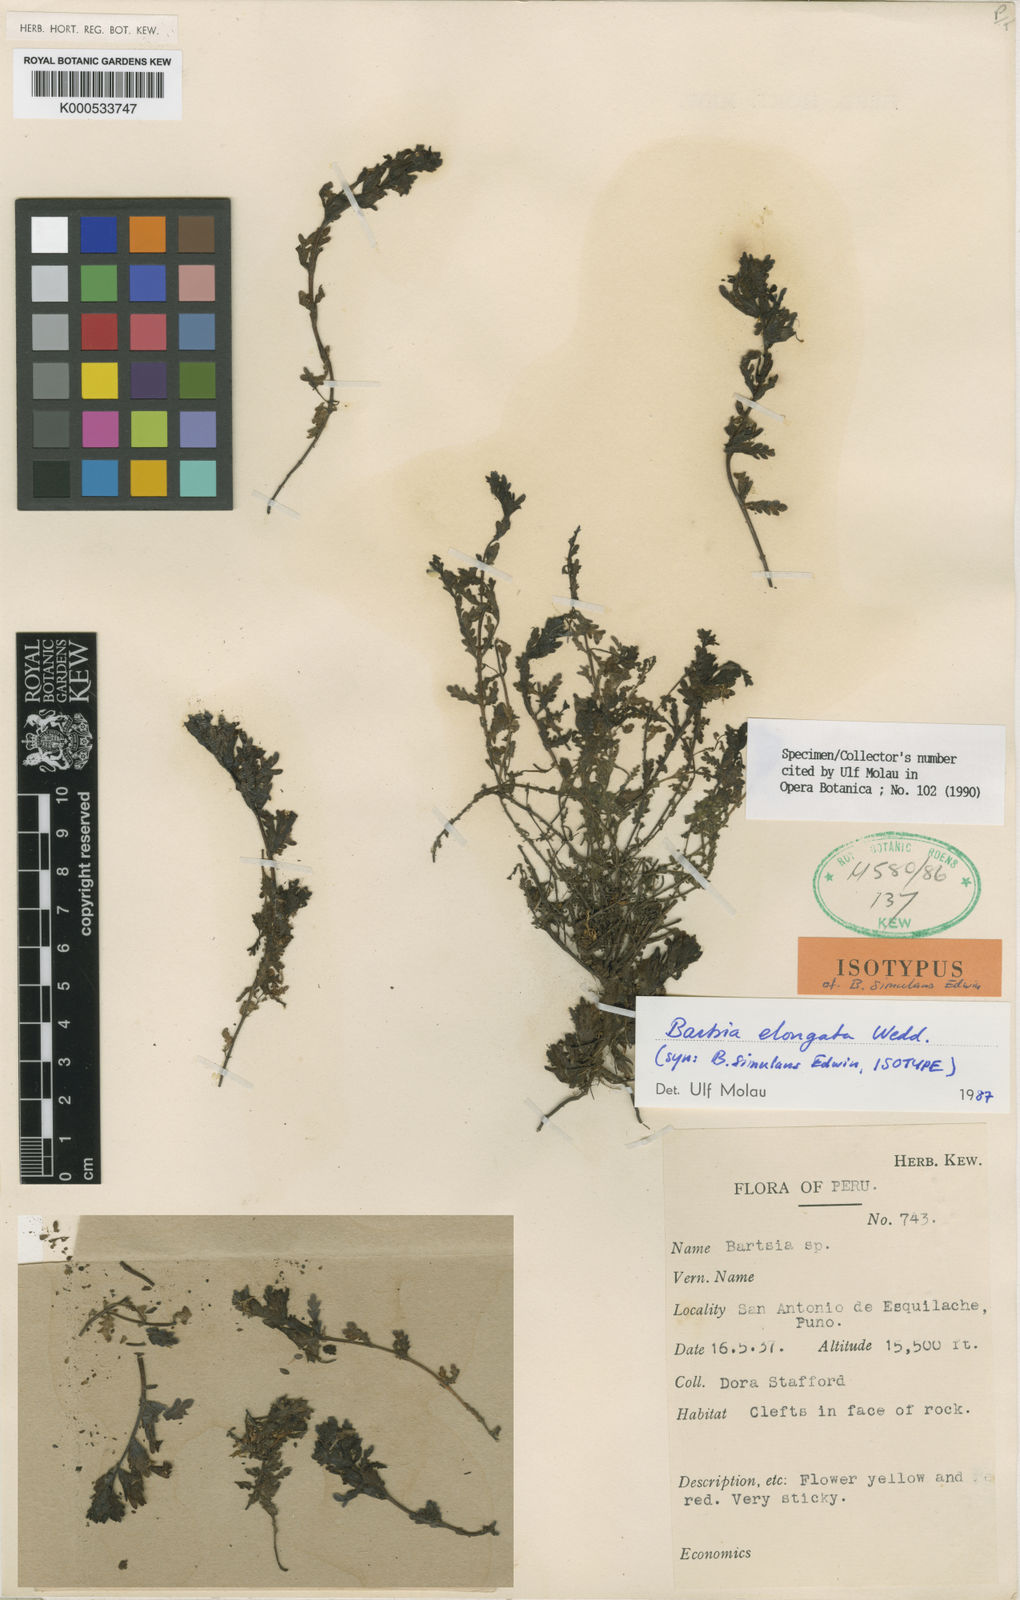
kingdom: Plantae
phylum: Tracheophyta
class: Magnoliopsida
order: Lamiales
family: Orobanchaceae
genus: Neobartsia
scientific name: Neobartsia elongata
